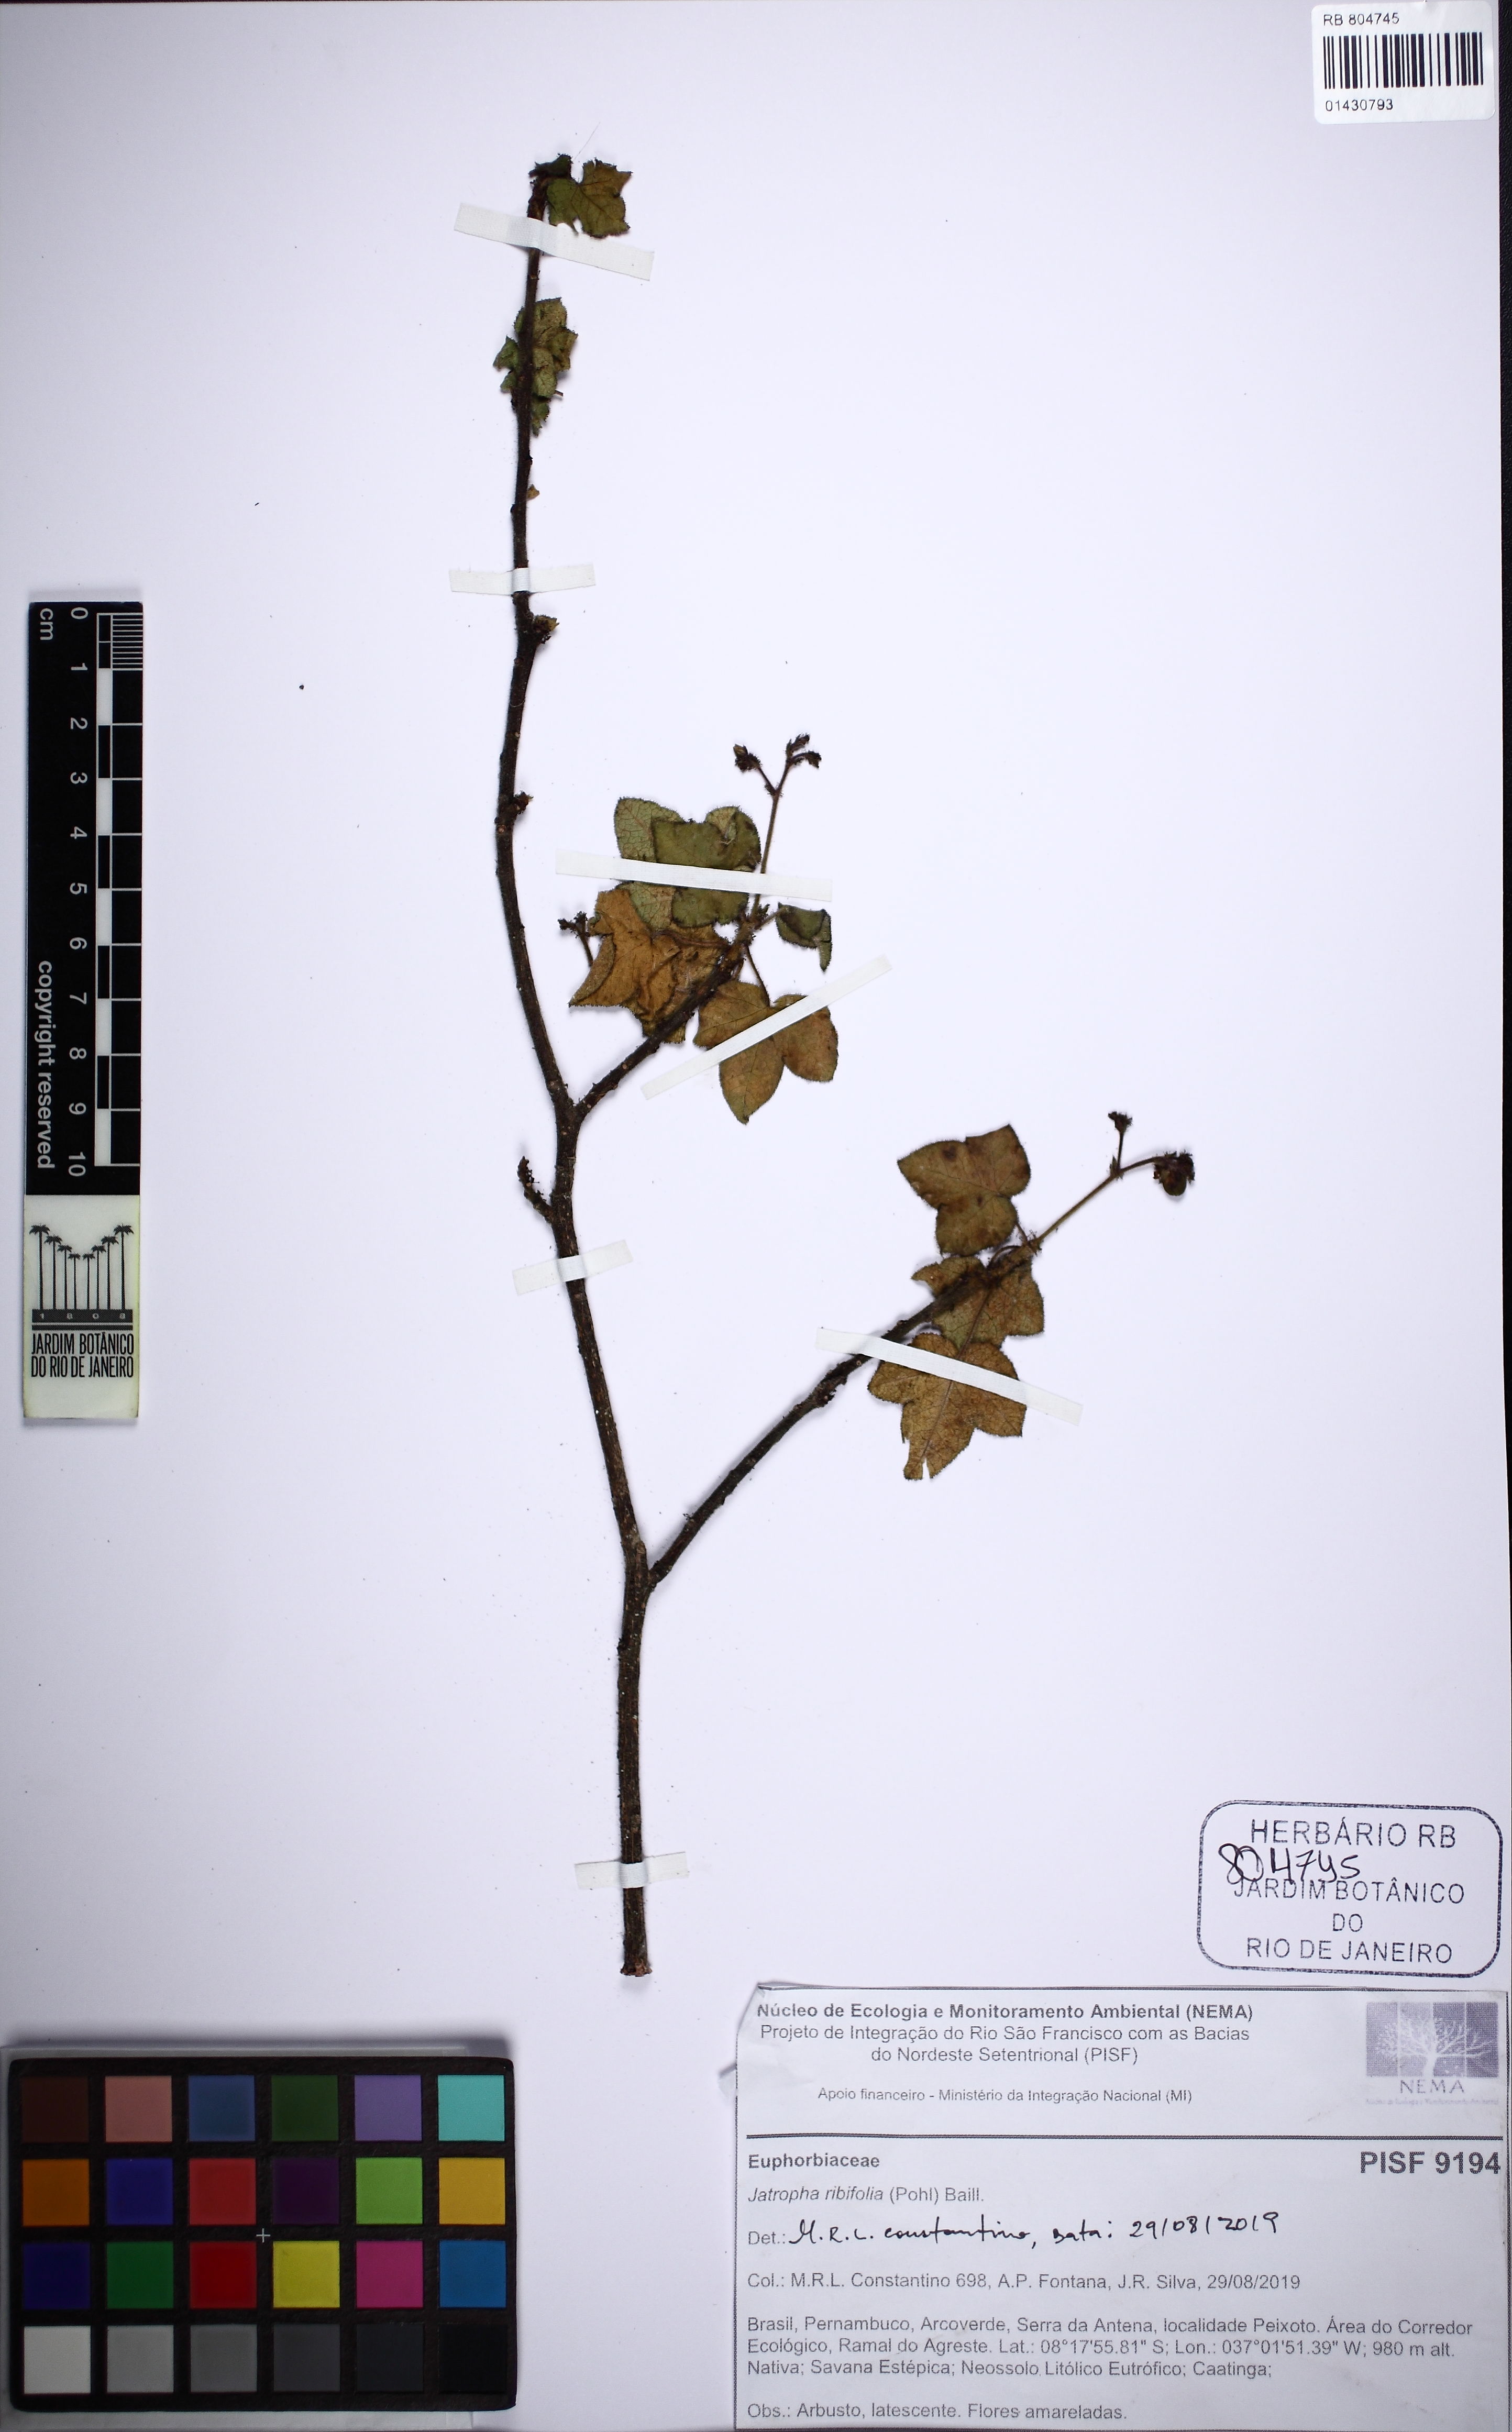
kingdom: Plantae
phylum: Tracheophyta
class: Magnoliopsida
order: Malpighiales
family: Euphorbiaceae
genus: Jatropha
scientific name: Jatropha ribifolia
